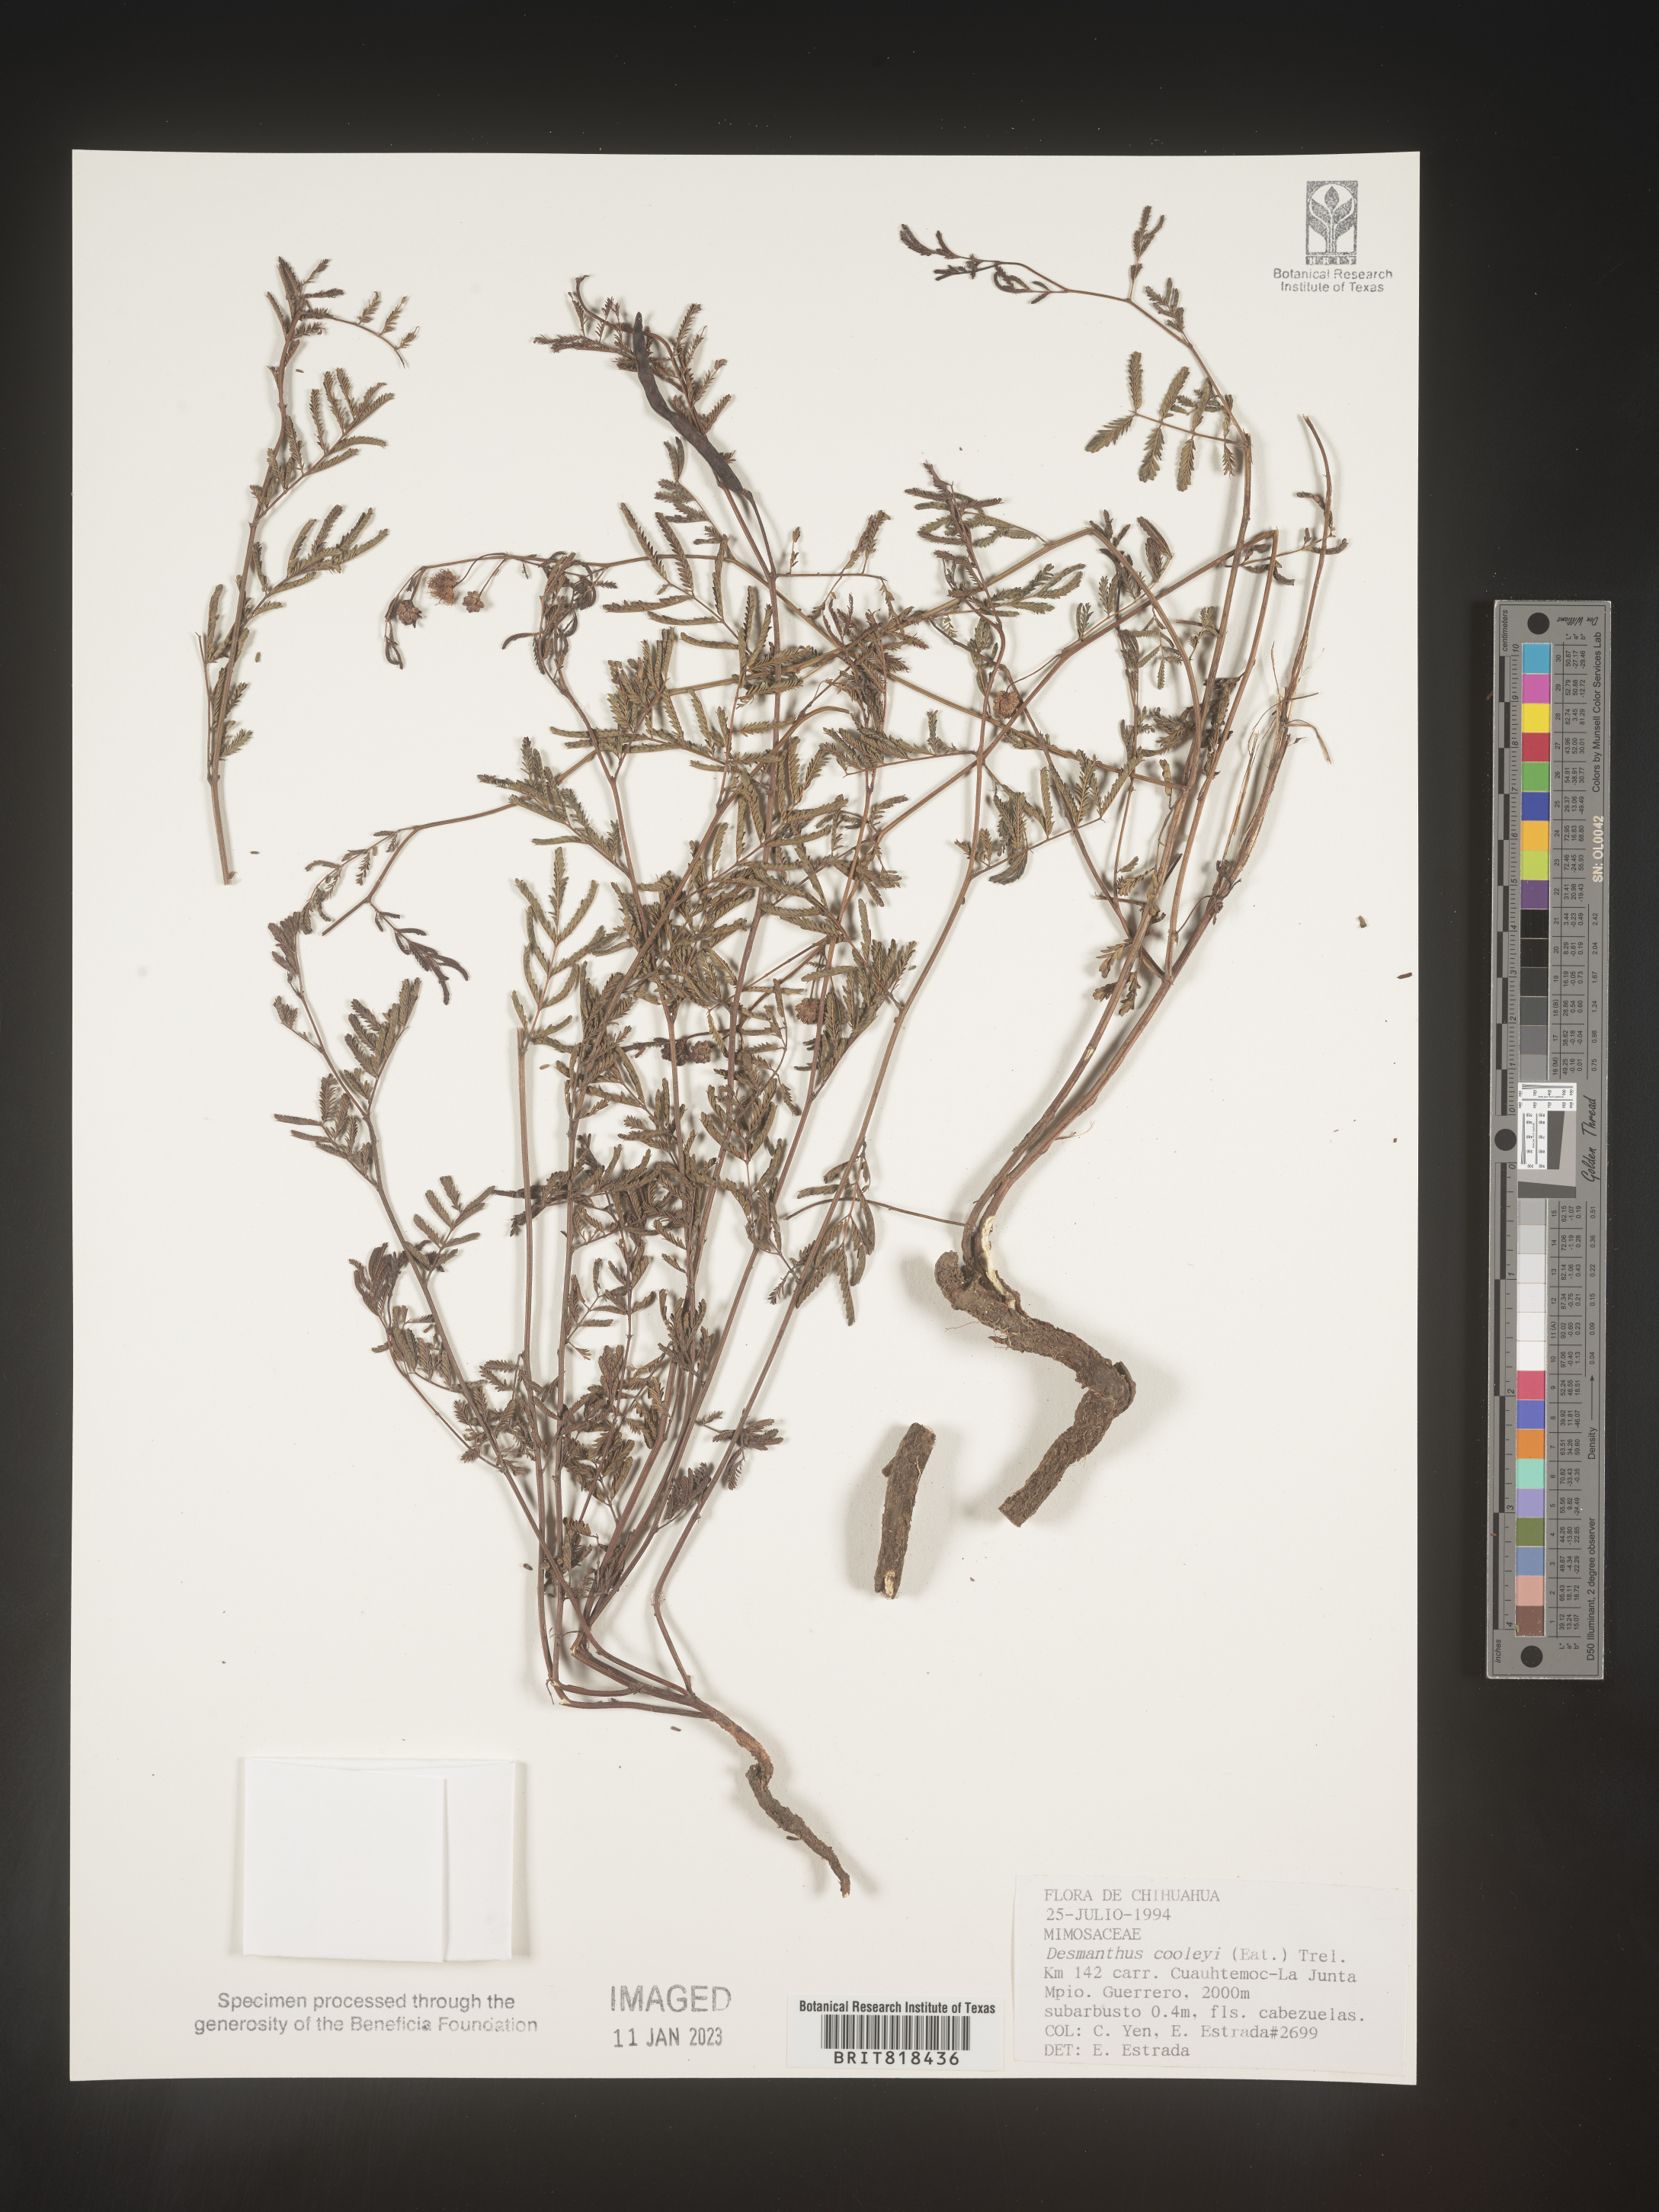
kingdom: Plantae
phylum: Tracheophyta
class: Magnoliopsida
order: Fabales
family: Fabaceae
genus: Desmanthus
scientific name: Desmanthus
